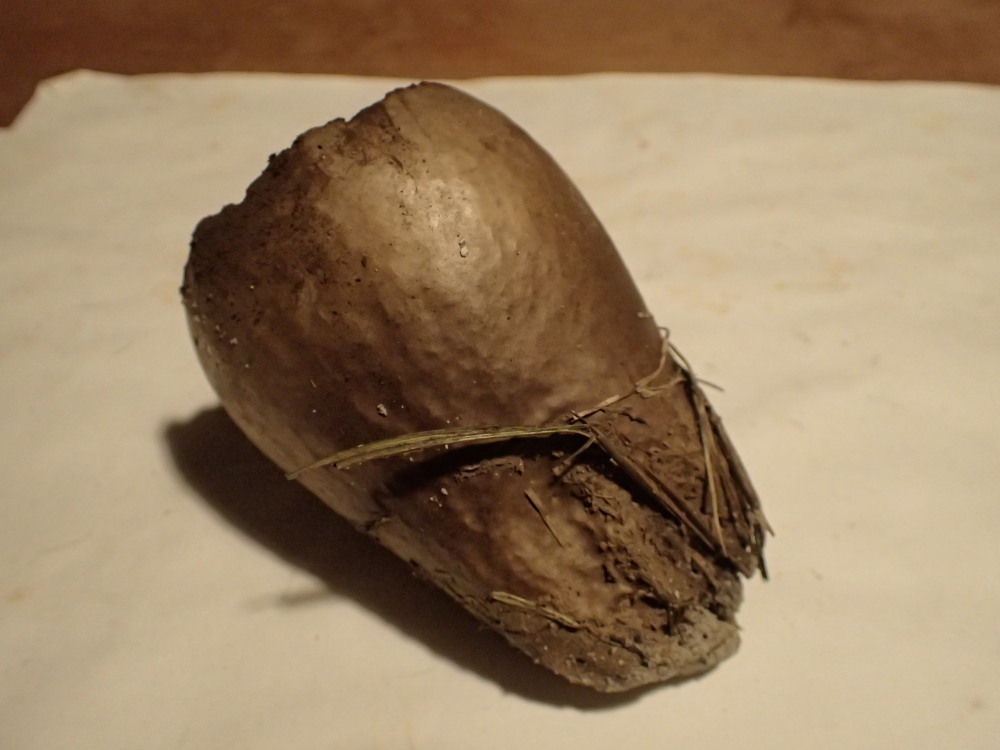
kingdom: Fungi
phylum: Basidiomycota
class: Agaricomycetes
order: Agaricales
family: Lycoperdaceae
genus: Bovistella
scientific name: Bovistella utriformis
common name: skællet støvbold
